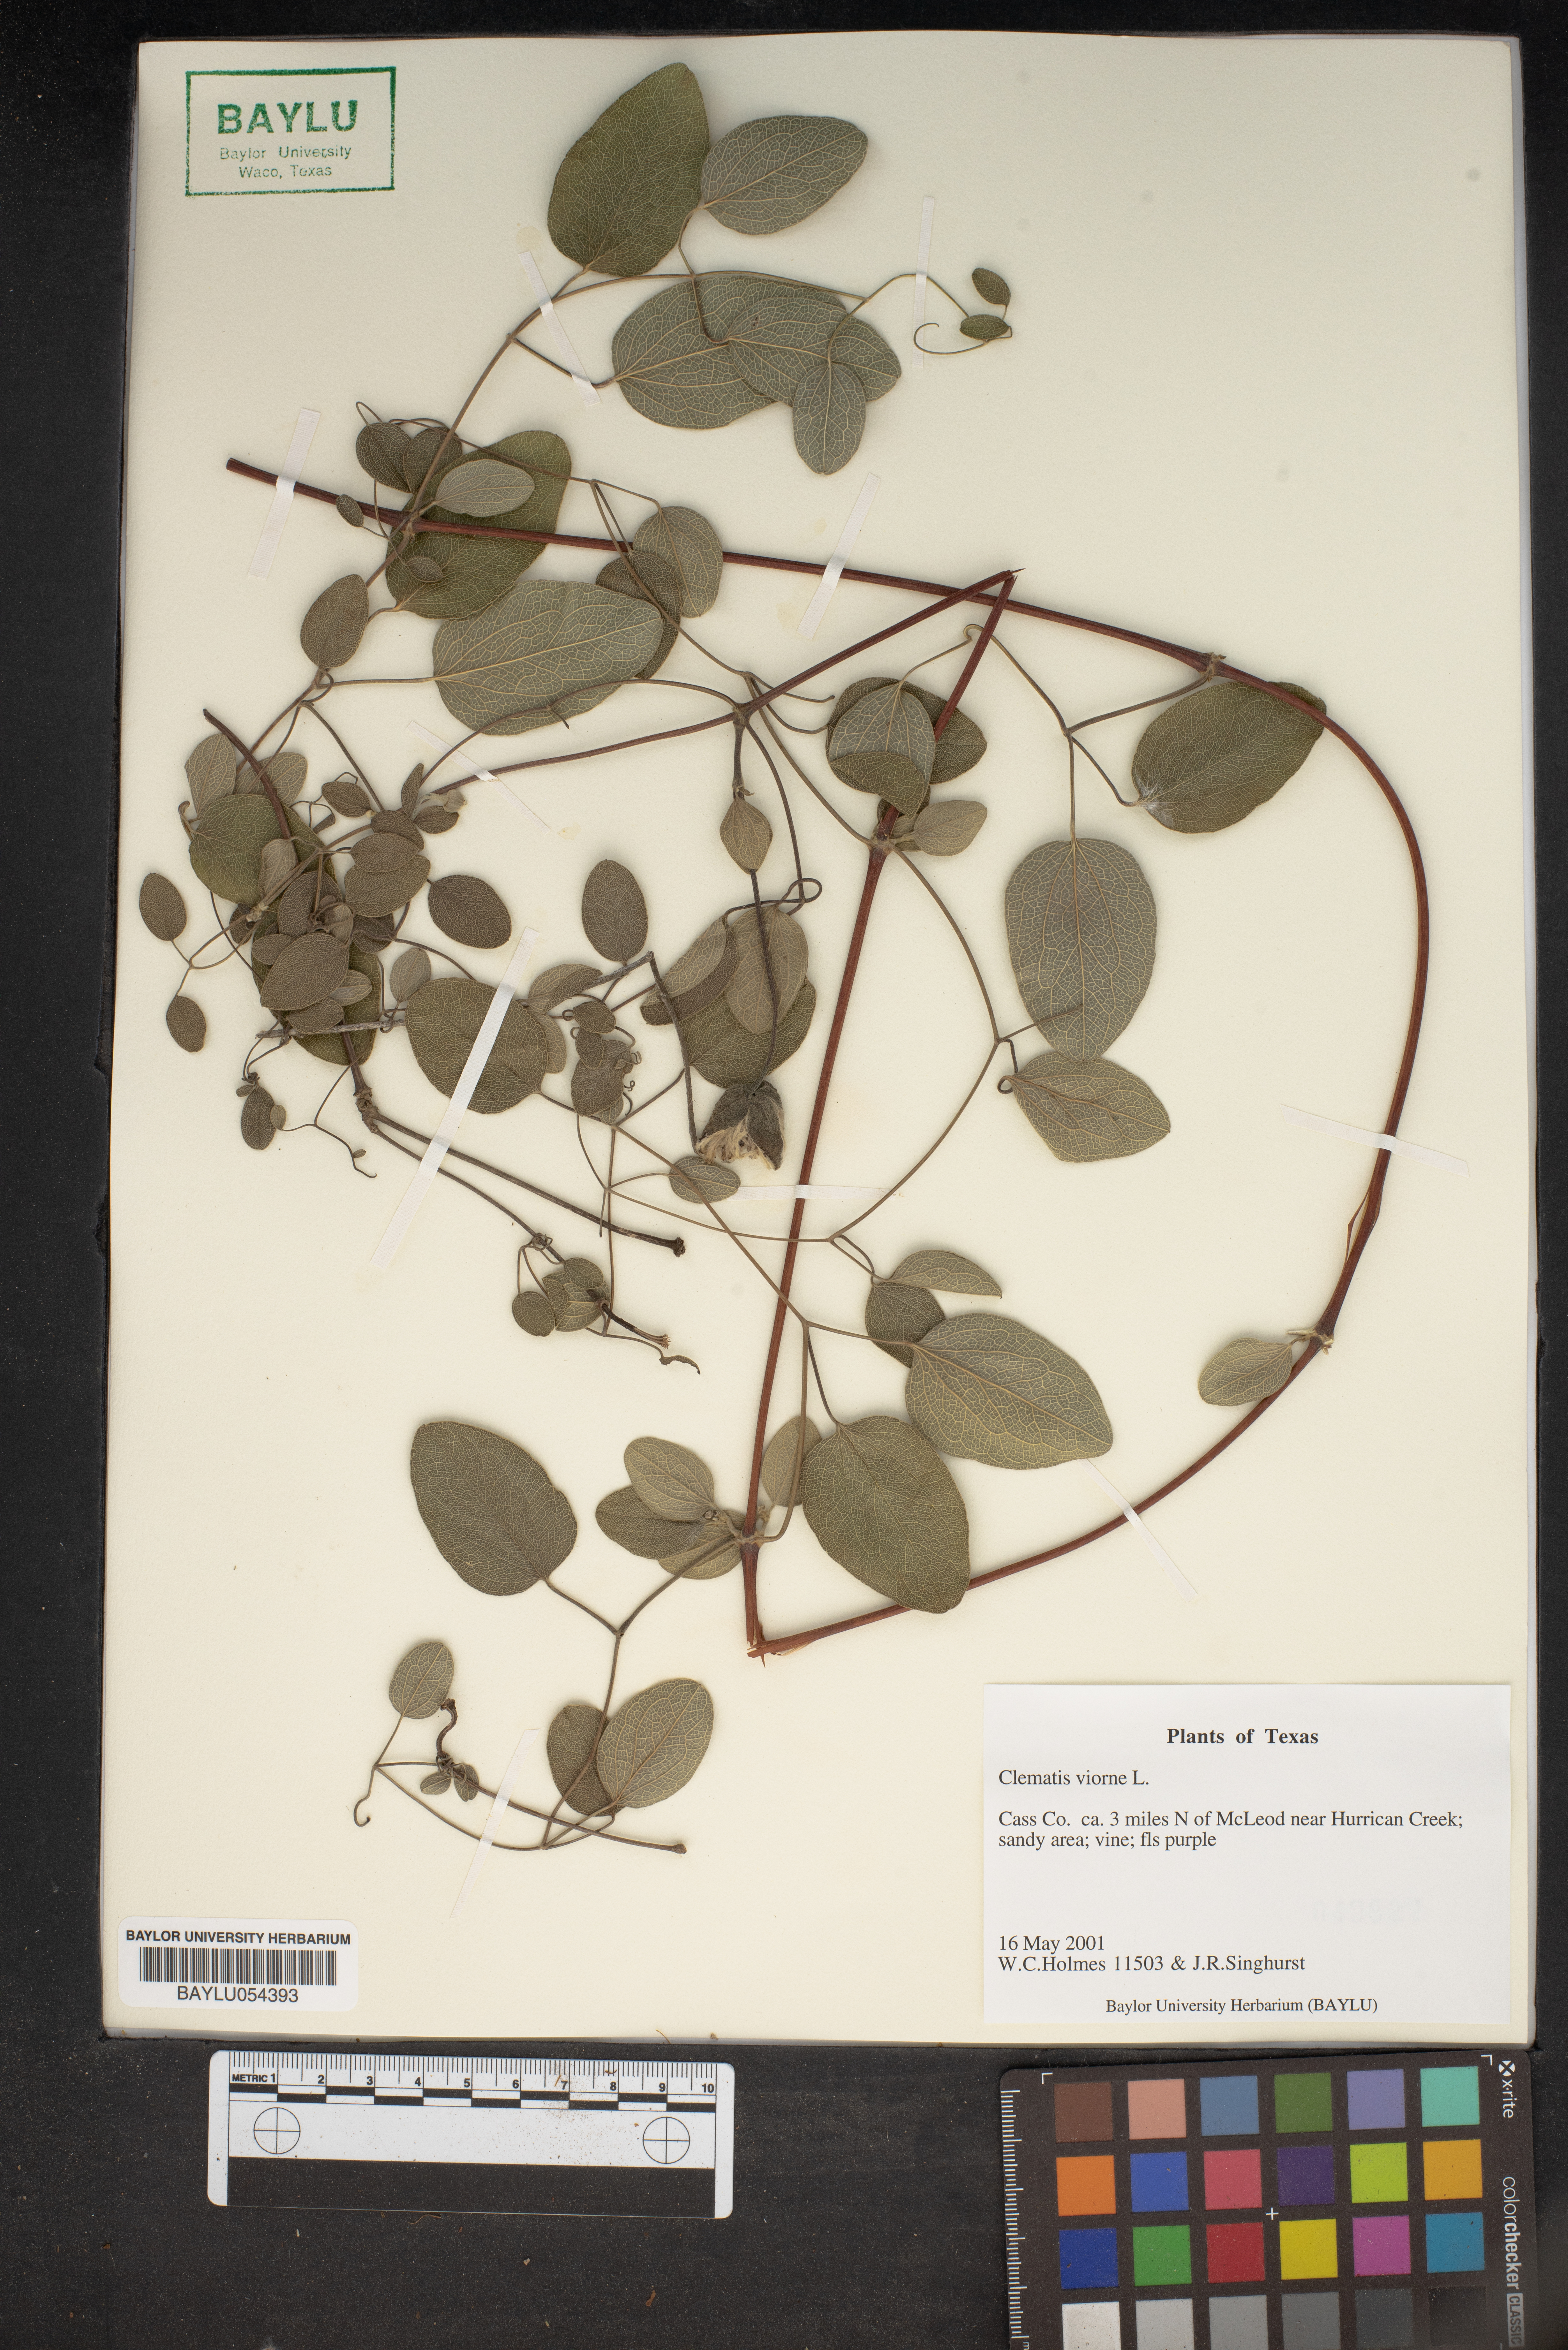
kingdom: Plantae
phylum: Tracheophyta
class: Magnoliopsida
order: Ranunculales
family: Ranunculaceae
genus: Clematis
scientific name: Clematis viorna
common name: Leather-flower
